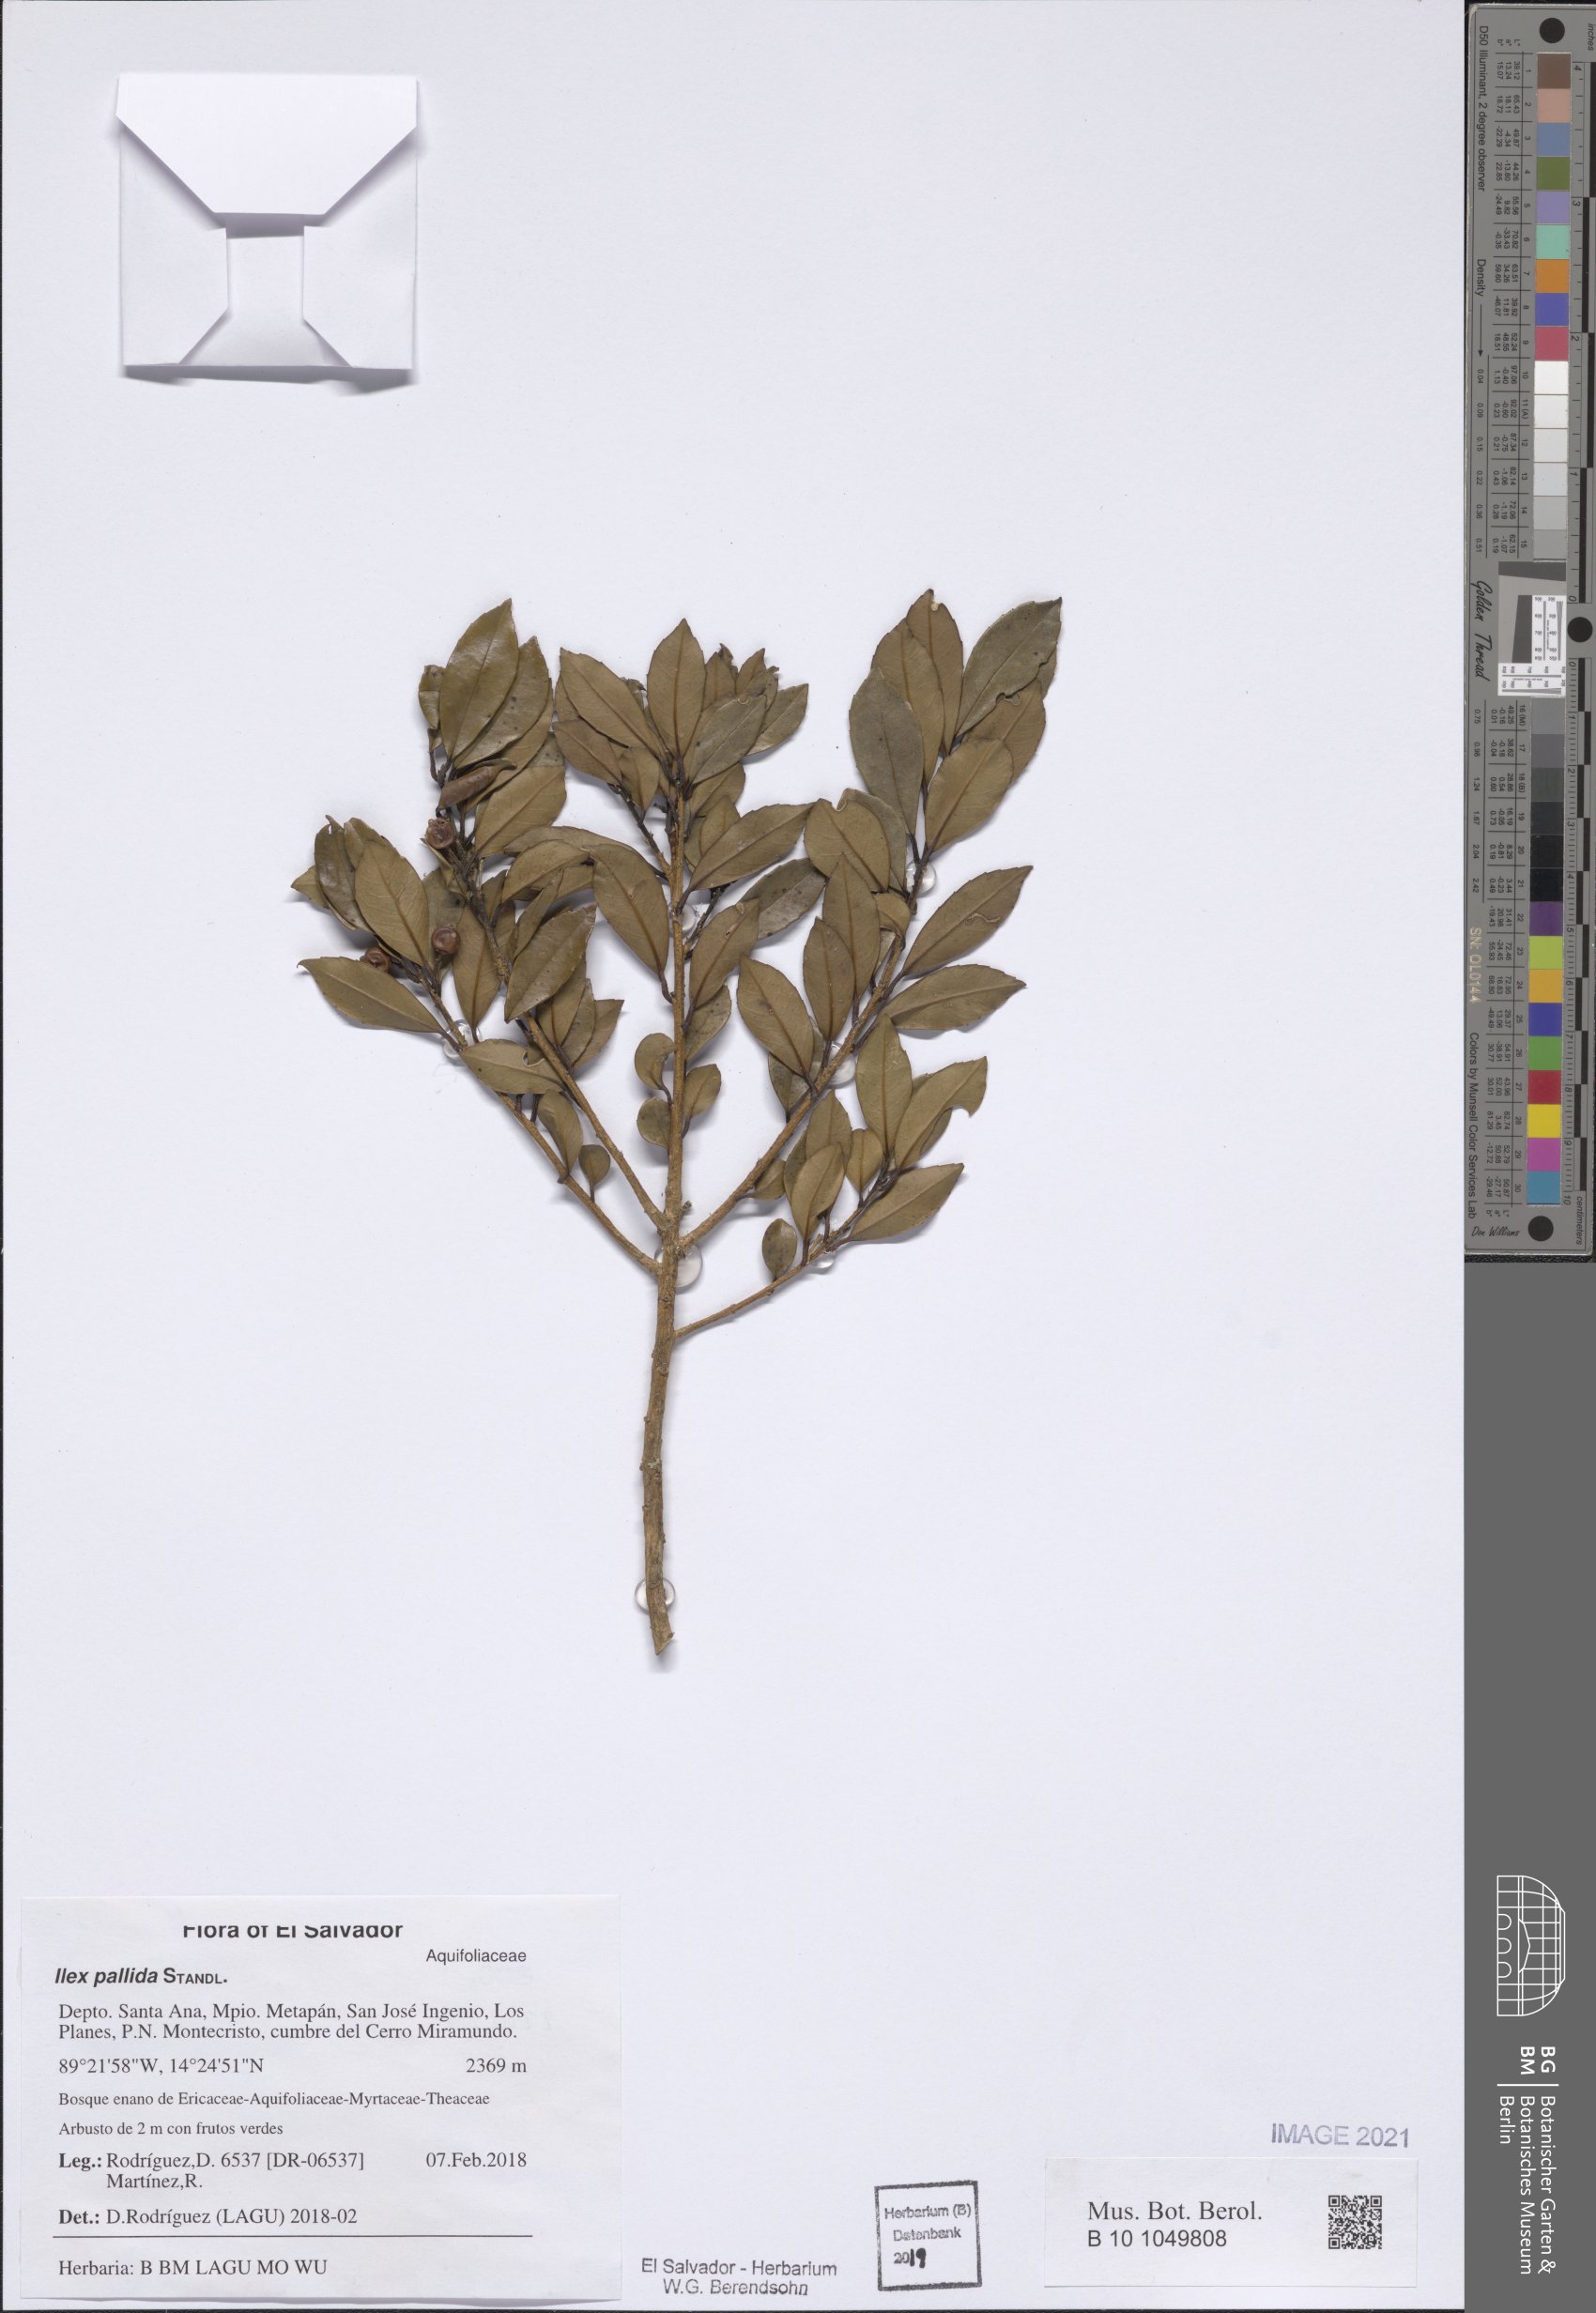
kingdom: Plantae
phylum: Tracheophyta
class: Magnoliopsida
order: Aquifoliales
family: Aquifoliaceae
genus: Ilex
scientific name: Ilex pallida
